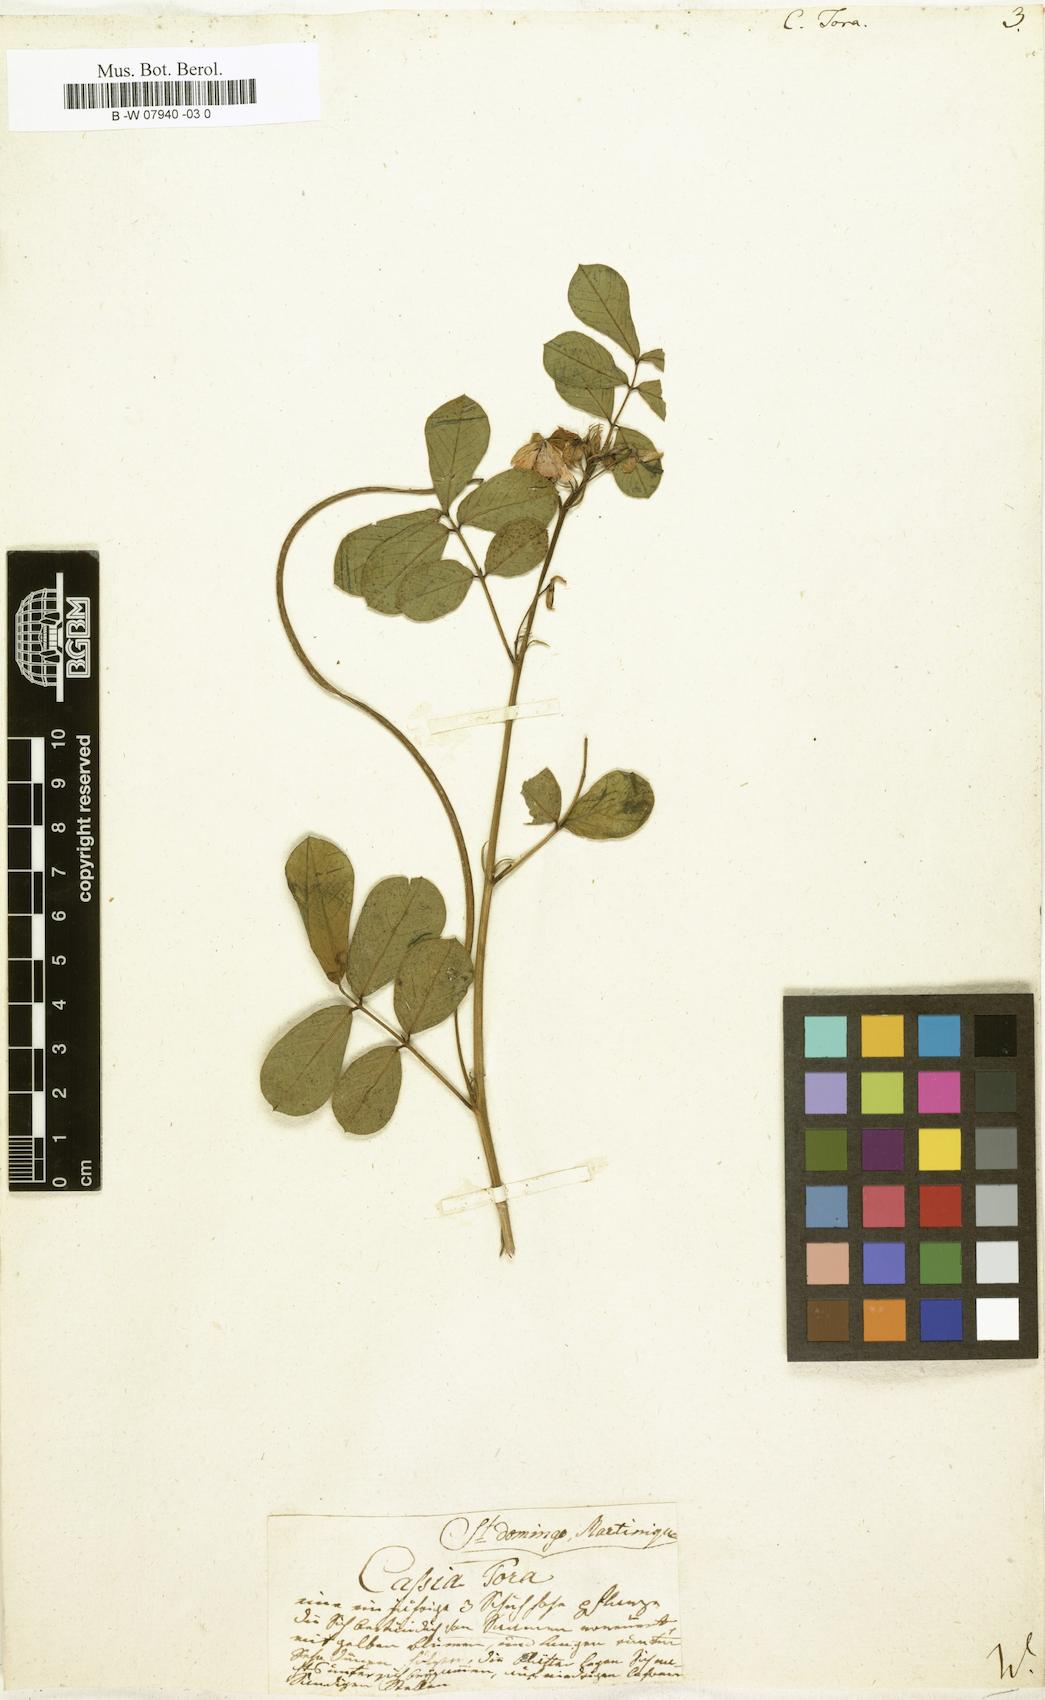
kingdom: Plantae
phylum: Tracheophyta
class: Magnoliopsida
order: Fabales
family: Fabaceae
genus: Senna
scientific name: Senna tora
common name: Sickle senna
